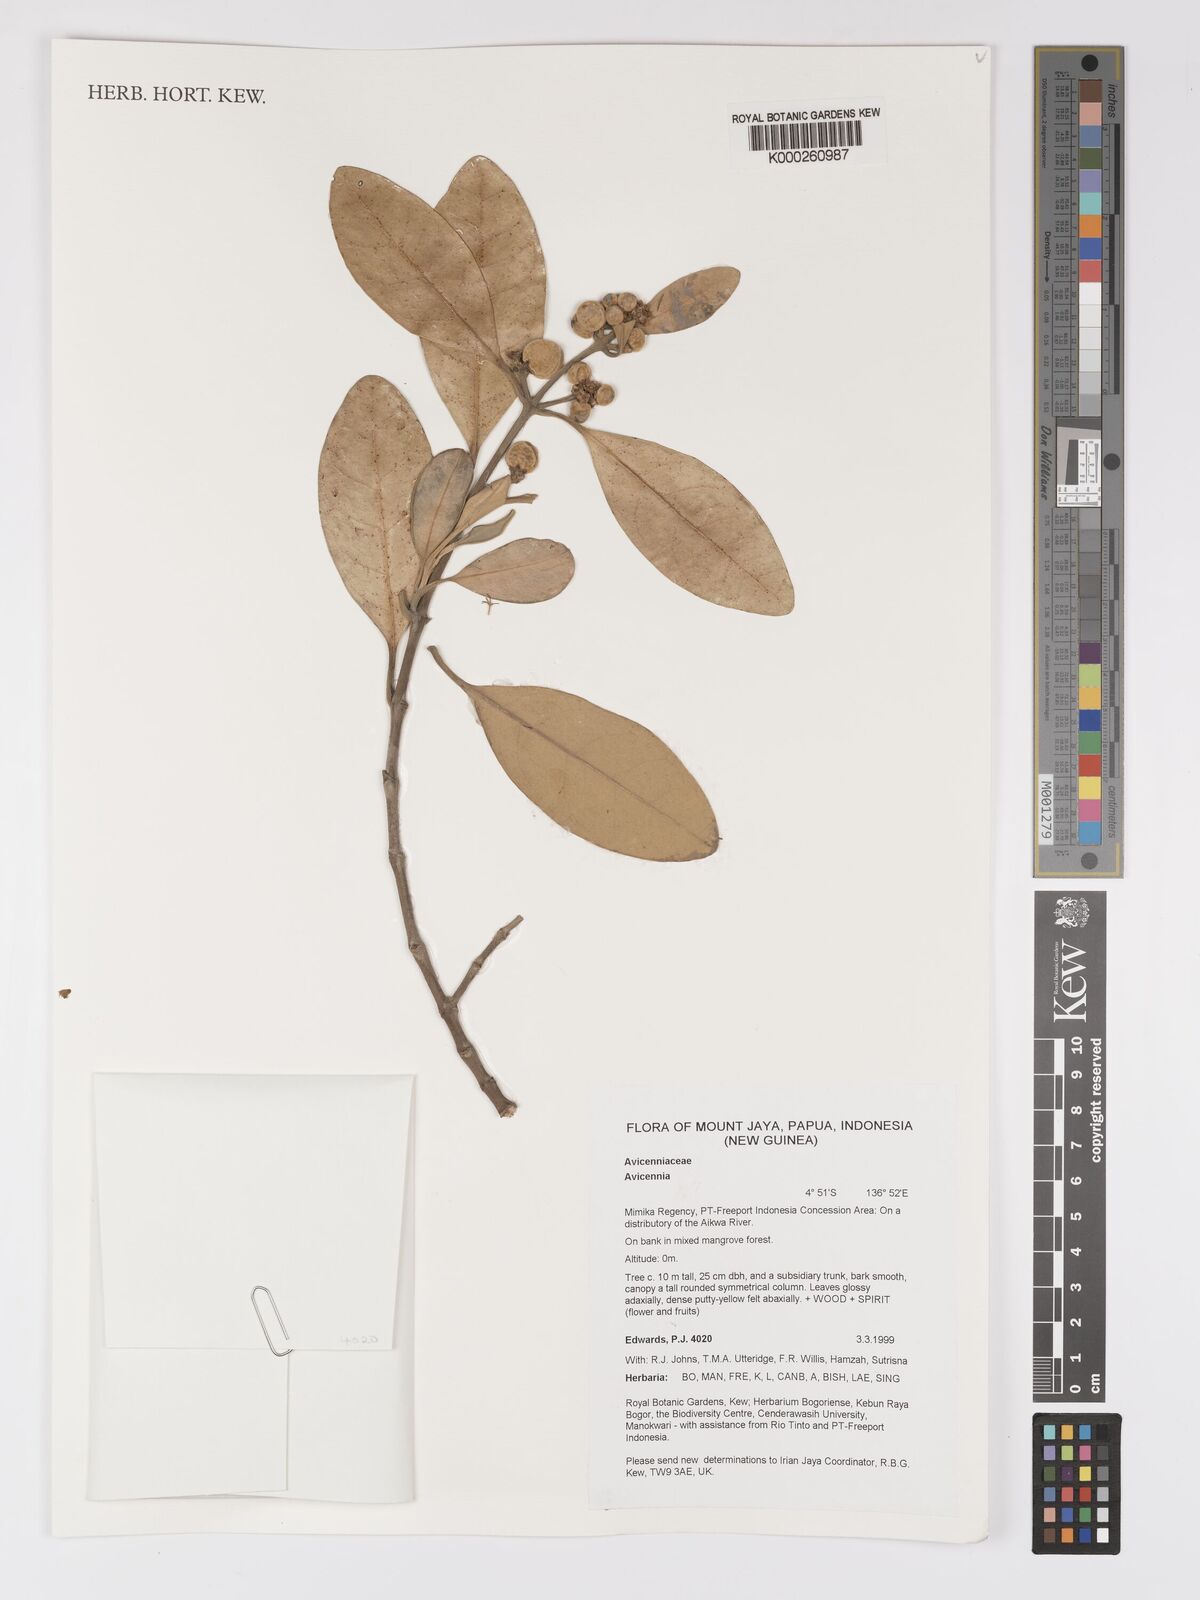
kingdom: Plantae
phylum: Tracheophyta
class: Magnoliopsida
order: Lamiales
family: Acanthaceae
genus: Avicennia
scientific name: Avicennia
